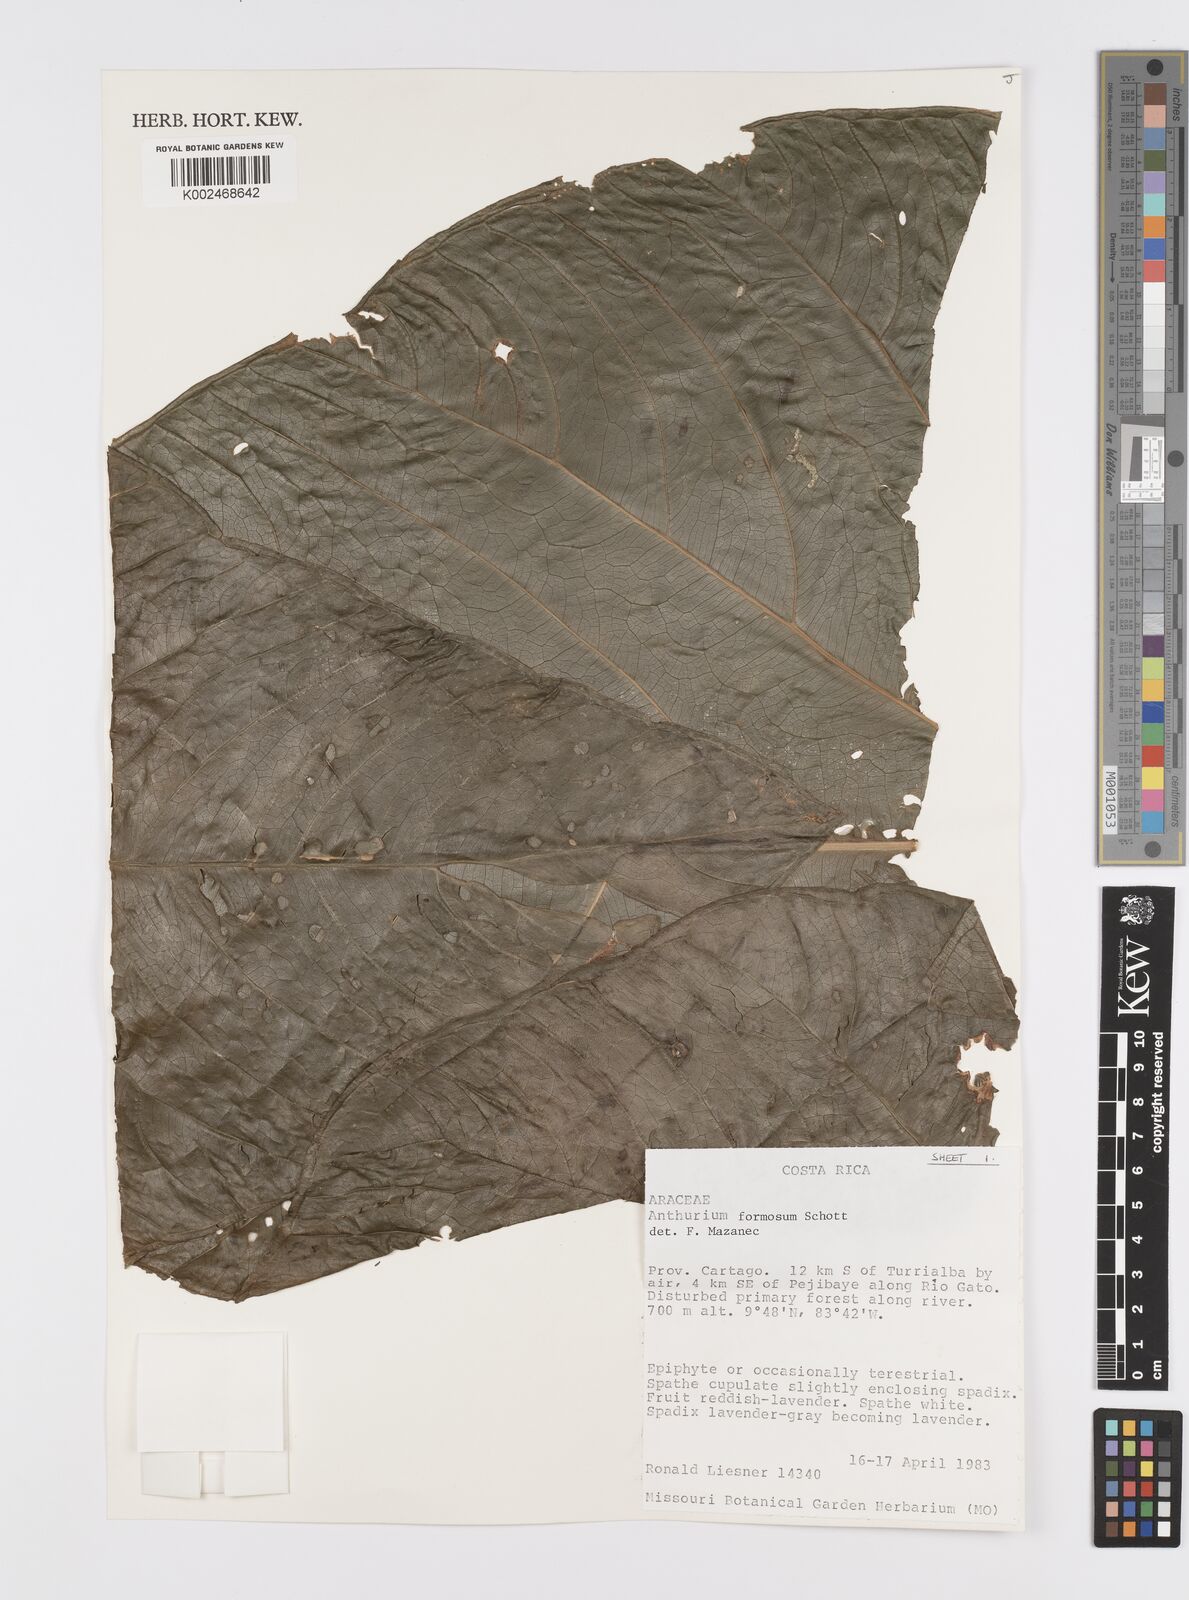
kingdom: Plantae
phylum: Tracheophyta
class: Liliopsida
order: Alismatales
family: Araceae
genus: Anthurium
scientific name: Anthurium formosum
